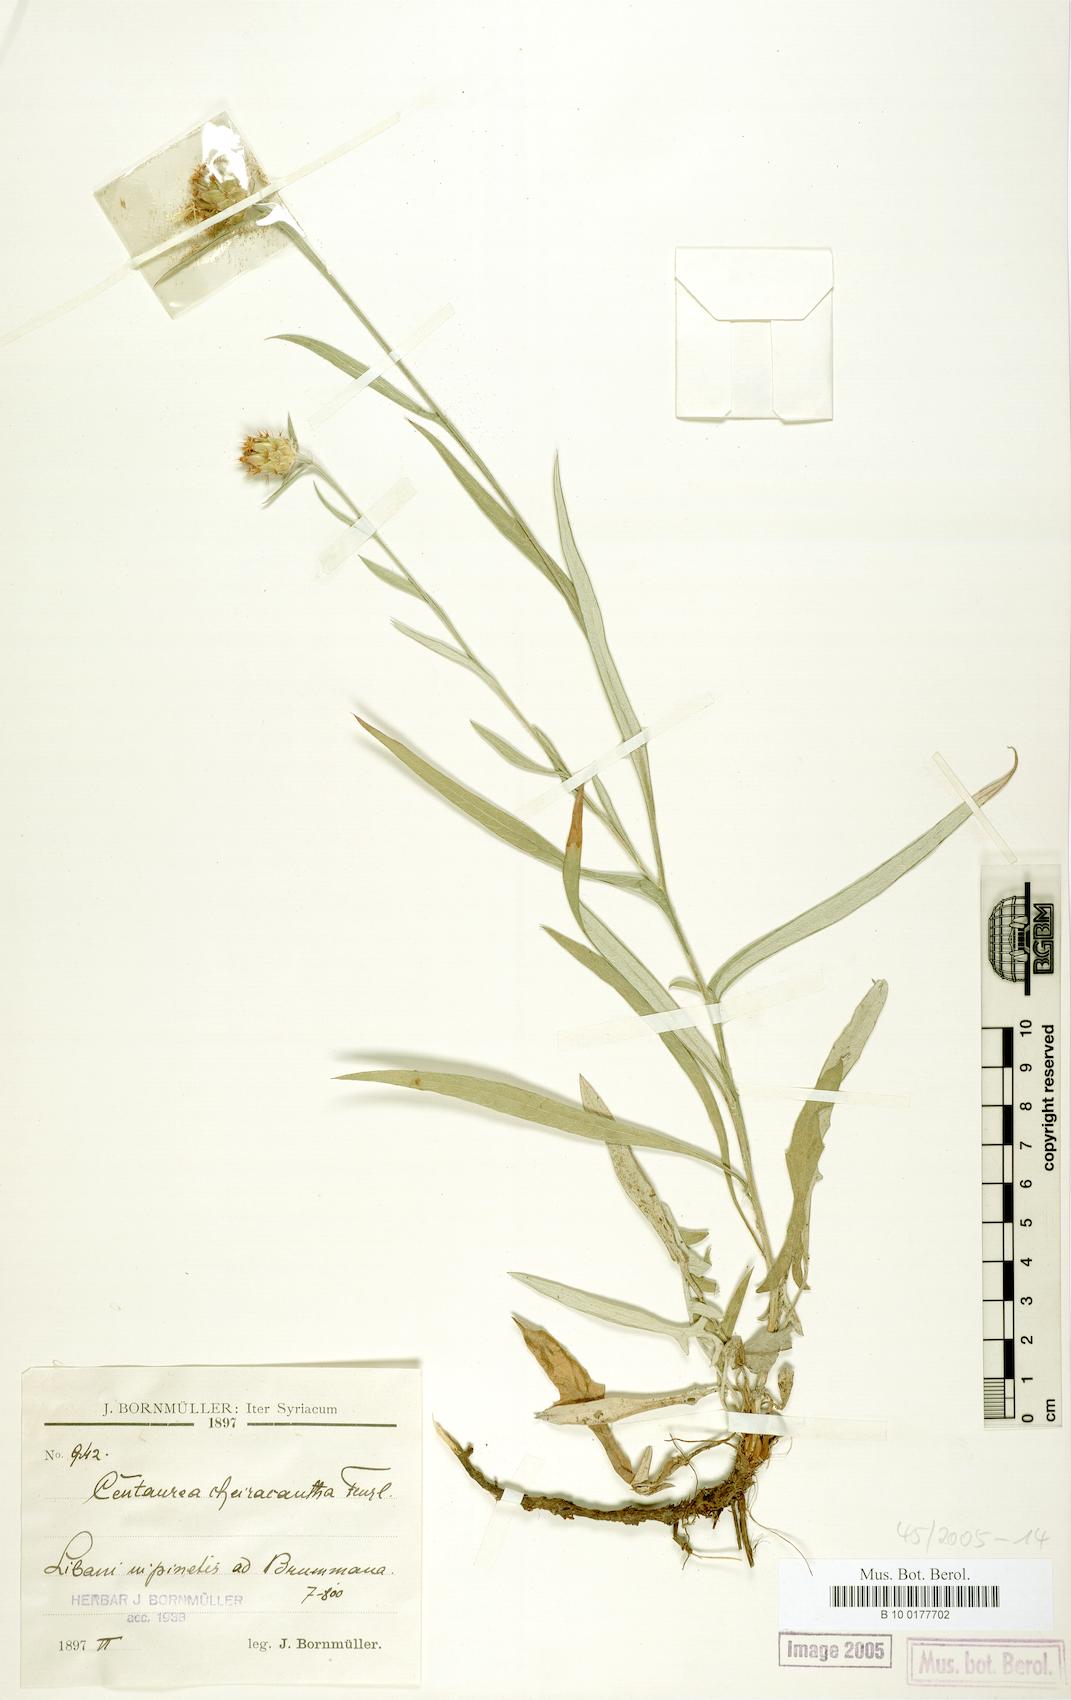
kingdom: Plantae
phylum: Tracheophyta
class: Magnoliopsida
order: Asterales
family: Asteraceae
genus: Centaurea
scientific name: Centaurea cheirolopha
